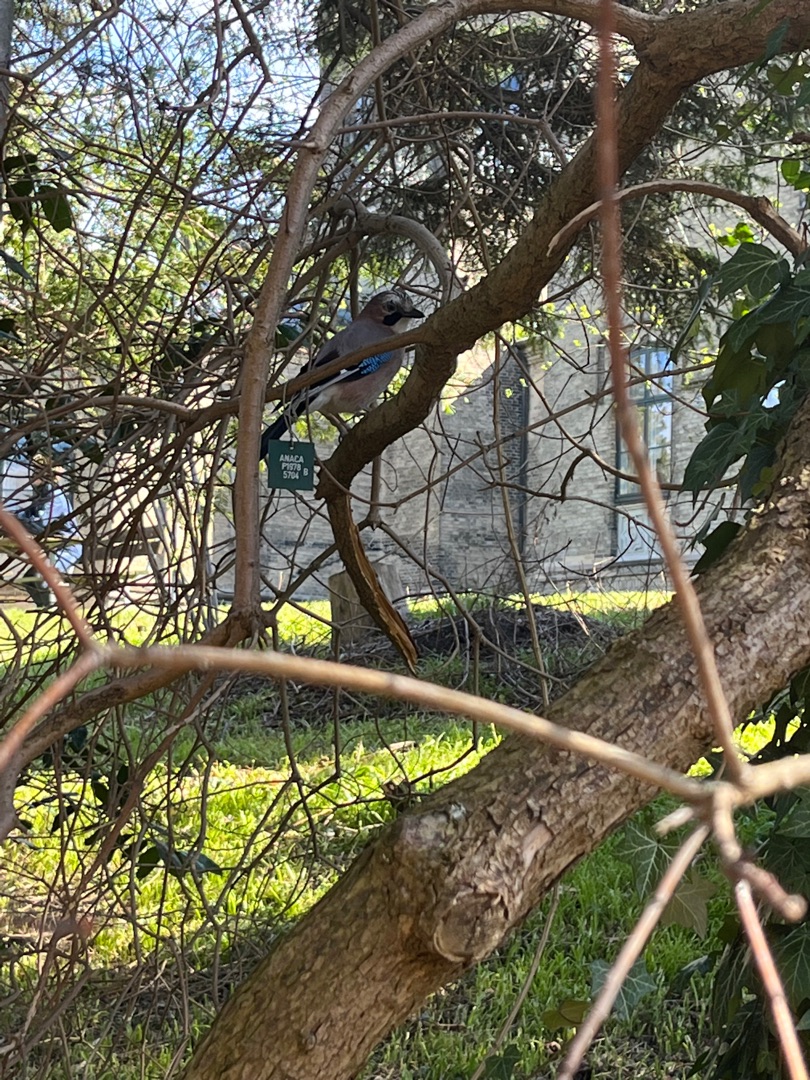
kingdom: Animalia
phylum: Chordata
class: Aves
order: Passeriformes
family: Corvidae
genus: Garrulus
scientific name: Garrulus glandarius
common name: Skovskade
